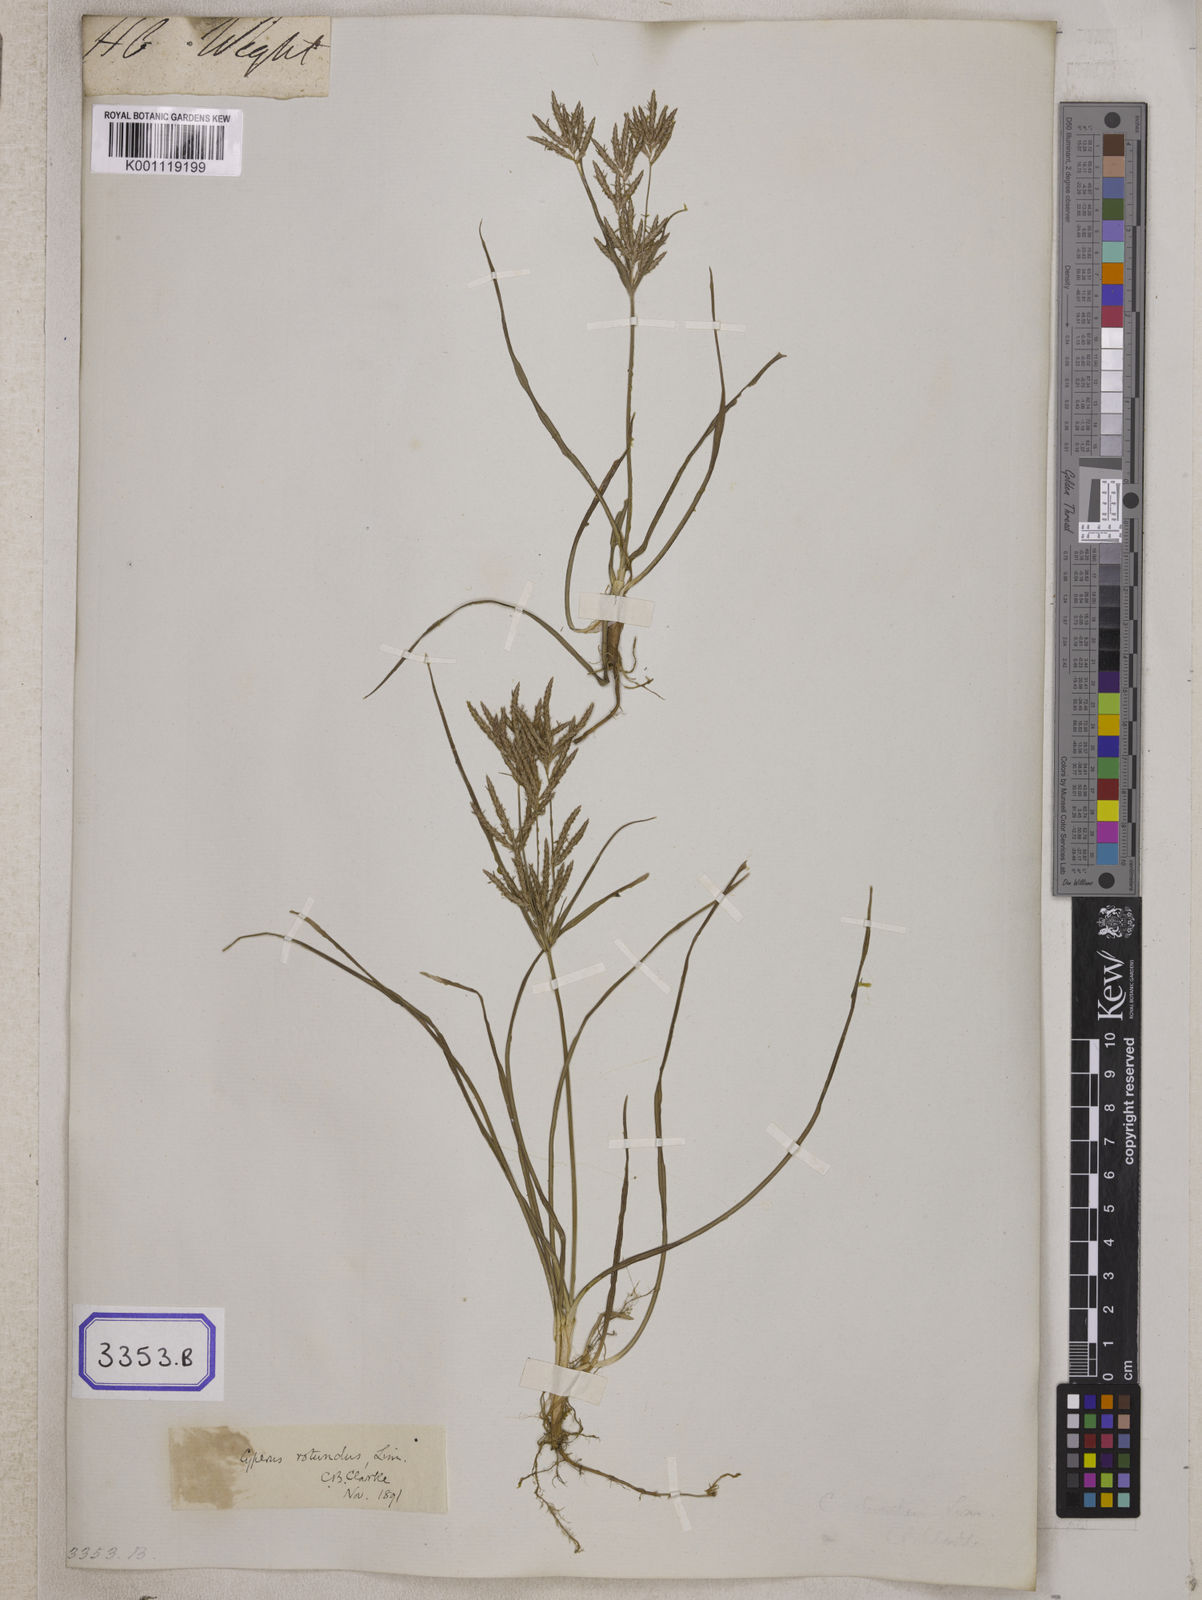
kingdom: Plantae
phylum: Tracheophyta
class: Liliopsida
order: Poales
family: Cyperaceae
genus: Cyperus
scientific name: Cyperus
